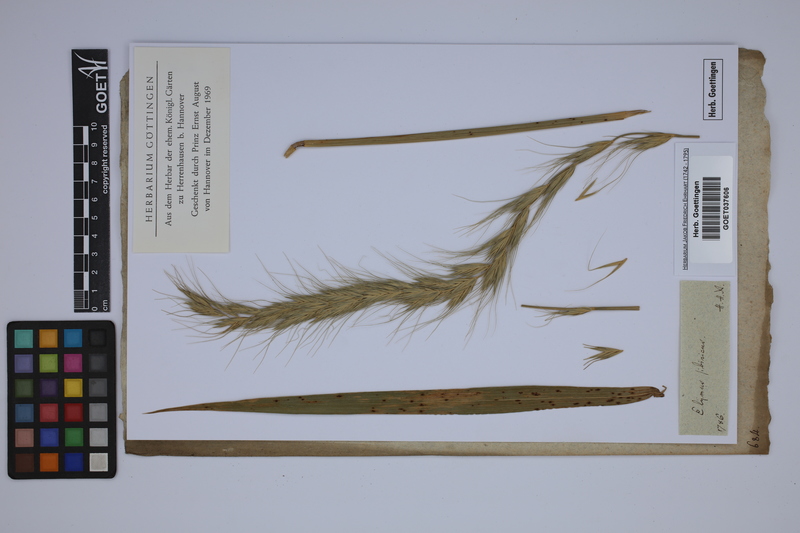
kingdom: Plantae
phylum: Tracheophyta
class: Liliopsida
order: Poales
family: Poaceae
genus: Elymus
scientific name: Elymus sibiricus
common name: Siberian wildrye
